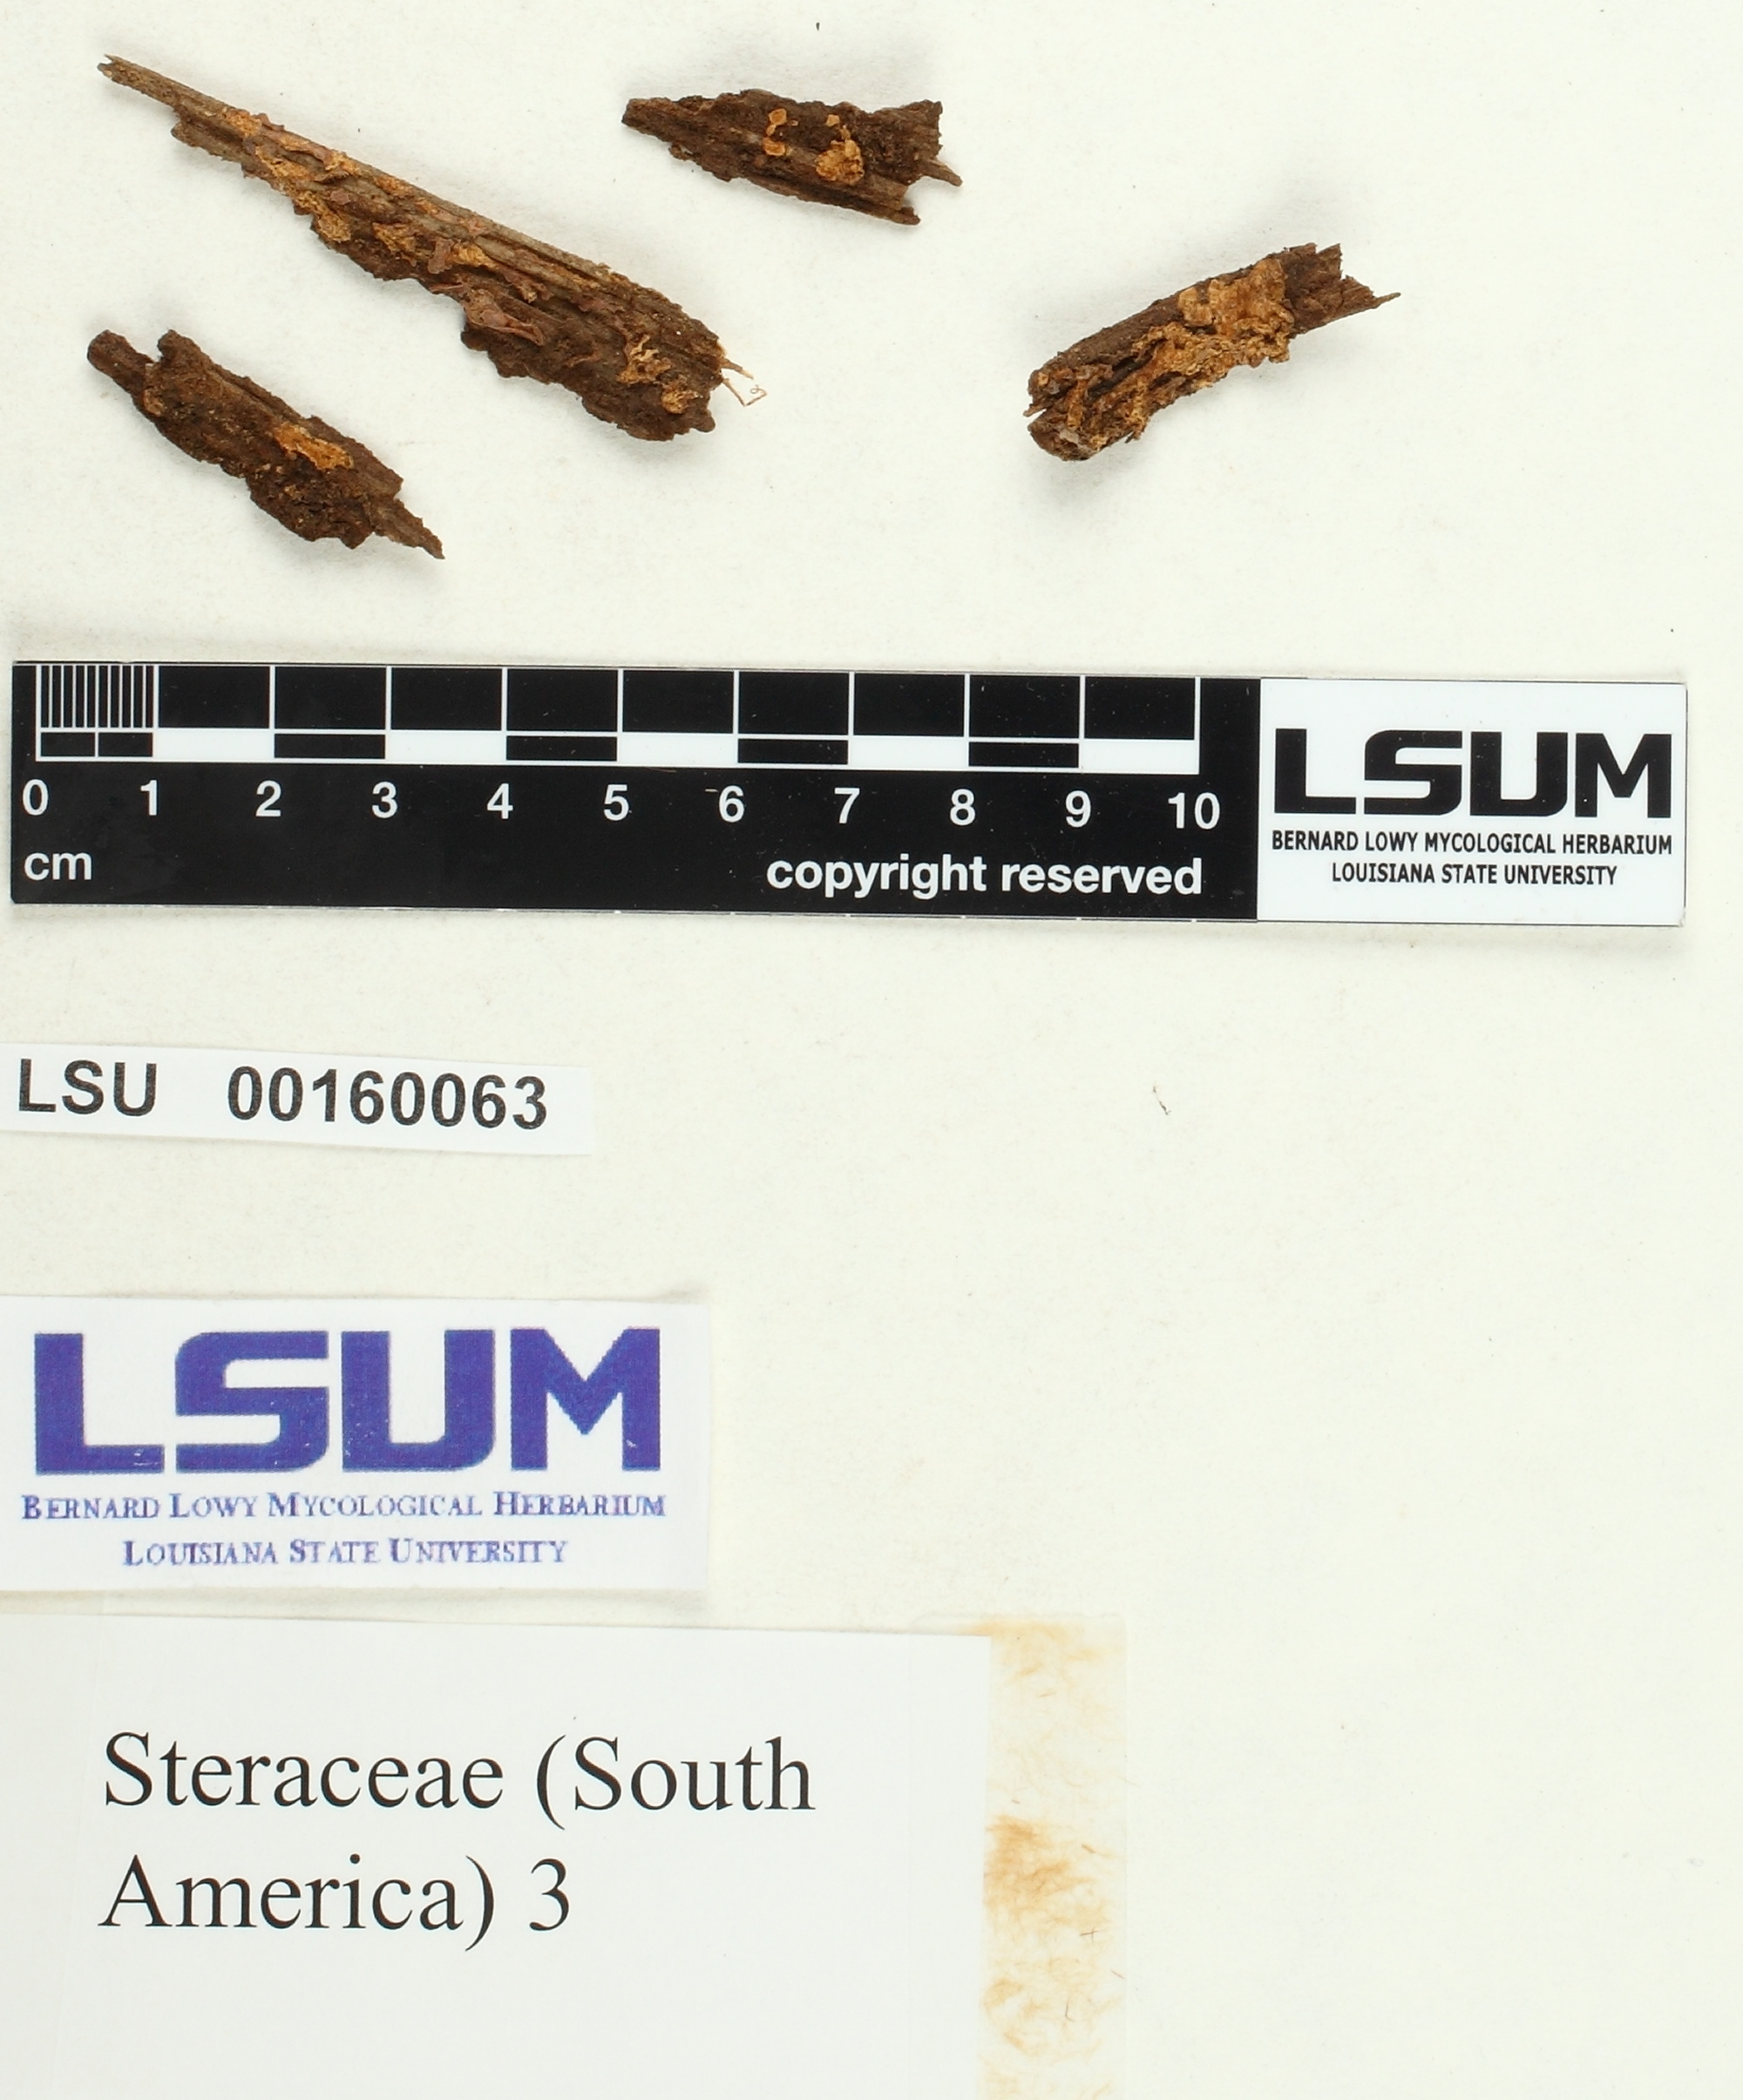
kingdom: Fungi
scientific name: Fungi
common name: Fungi
